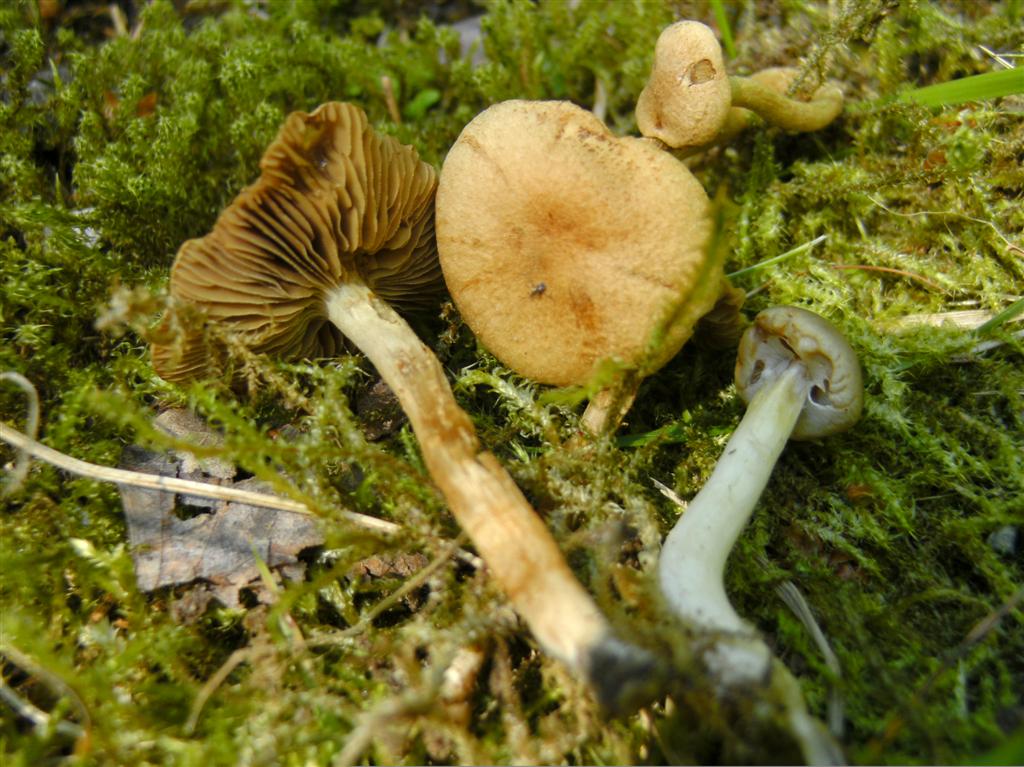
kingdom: Fungi
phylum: Basidiomycota
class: Agaricomycetes
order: Agaricales
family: Inocybaceae
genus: Inocybe
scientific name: Inocybe dulcamara
